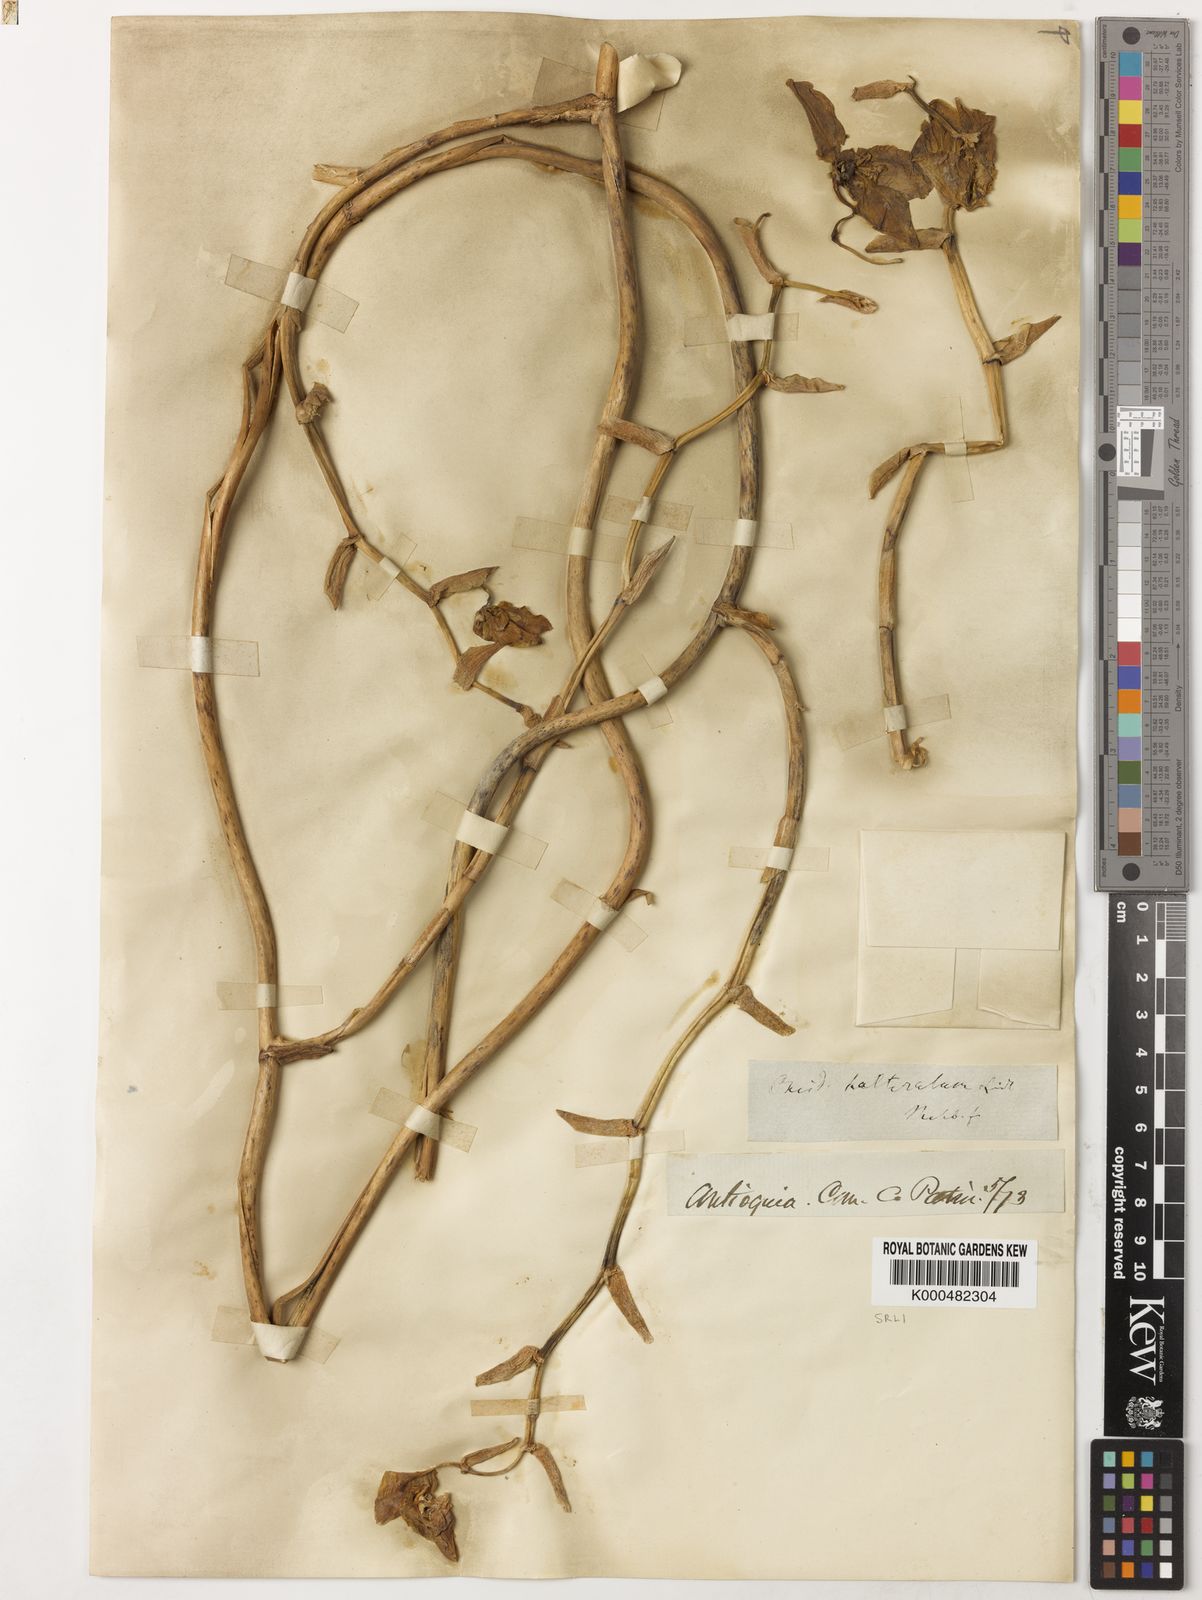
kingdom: Plantae
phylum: Tracheophyta
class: Liliopsida
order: Asparagales
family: Orchidaceae
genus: Cyrtochilum
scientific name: Cyrtochilum halteratum
